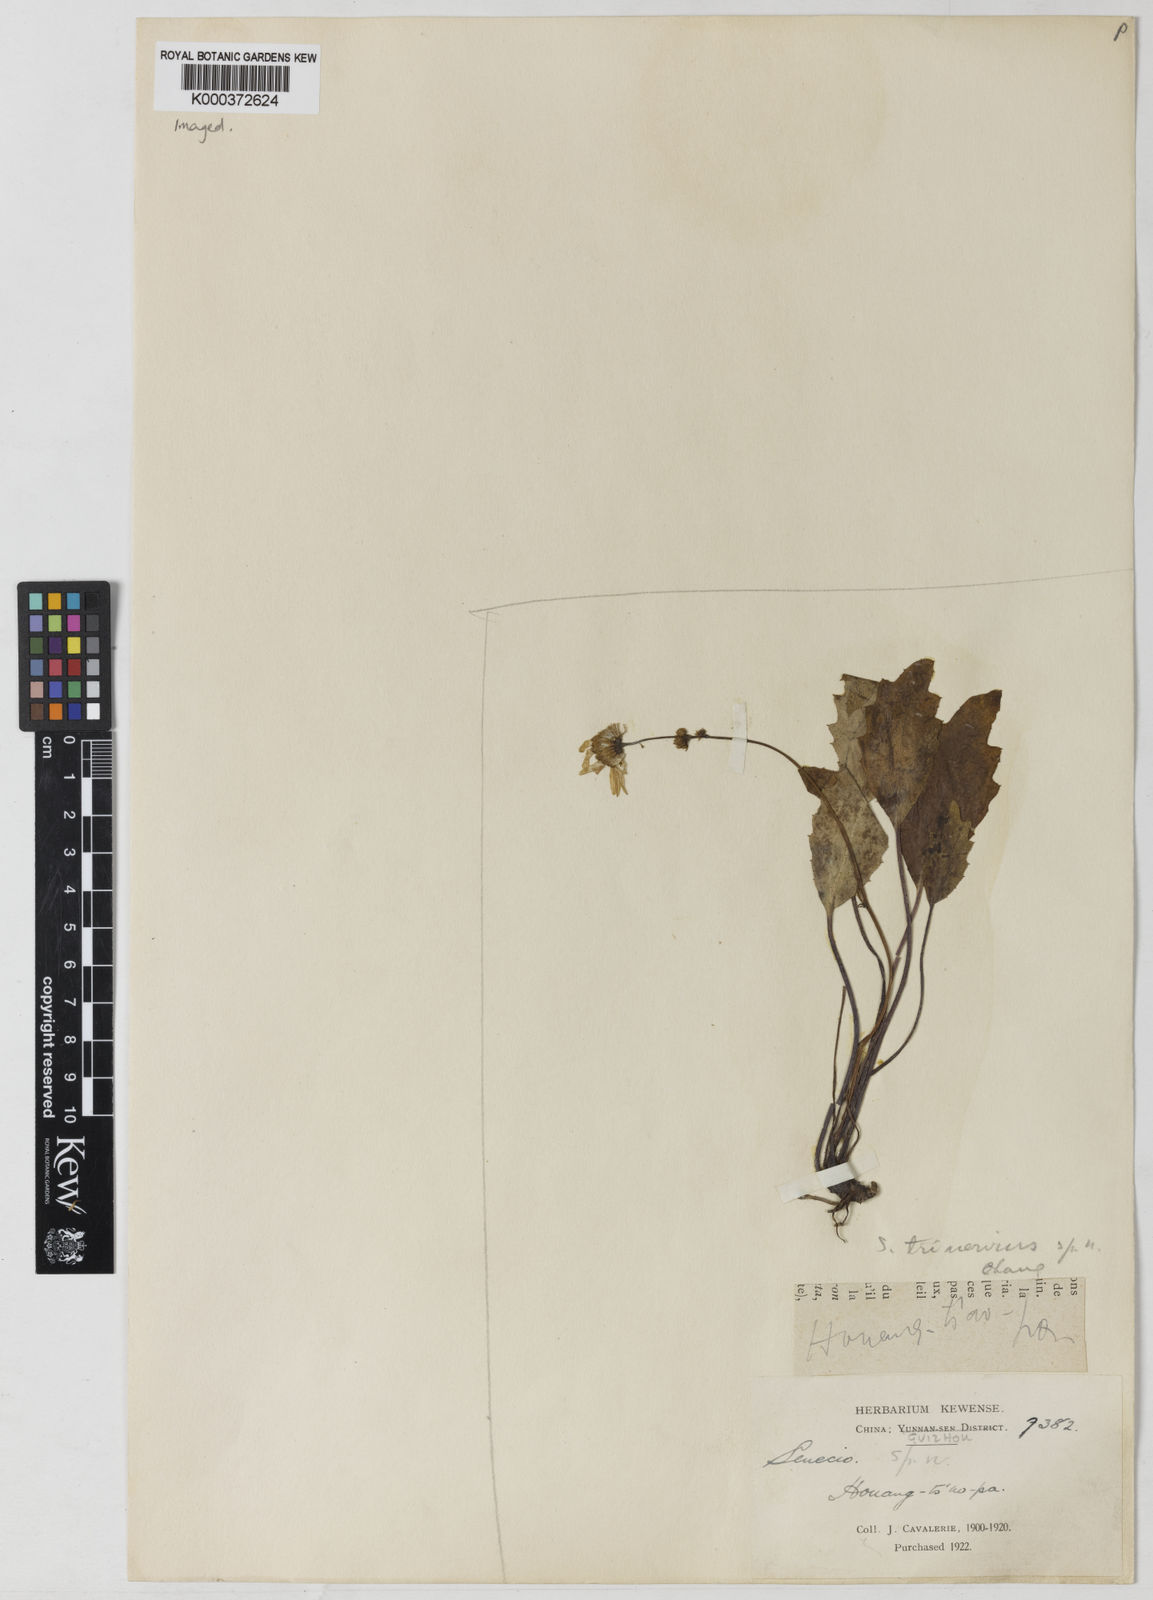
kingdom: Plantae
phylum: Tracheophyta
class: Magnoliopsida
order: Asterales
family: Asteraceae
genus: Sinosenecio
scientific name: Sinosenecio trinervius
